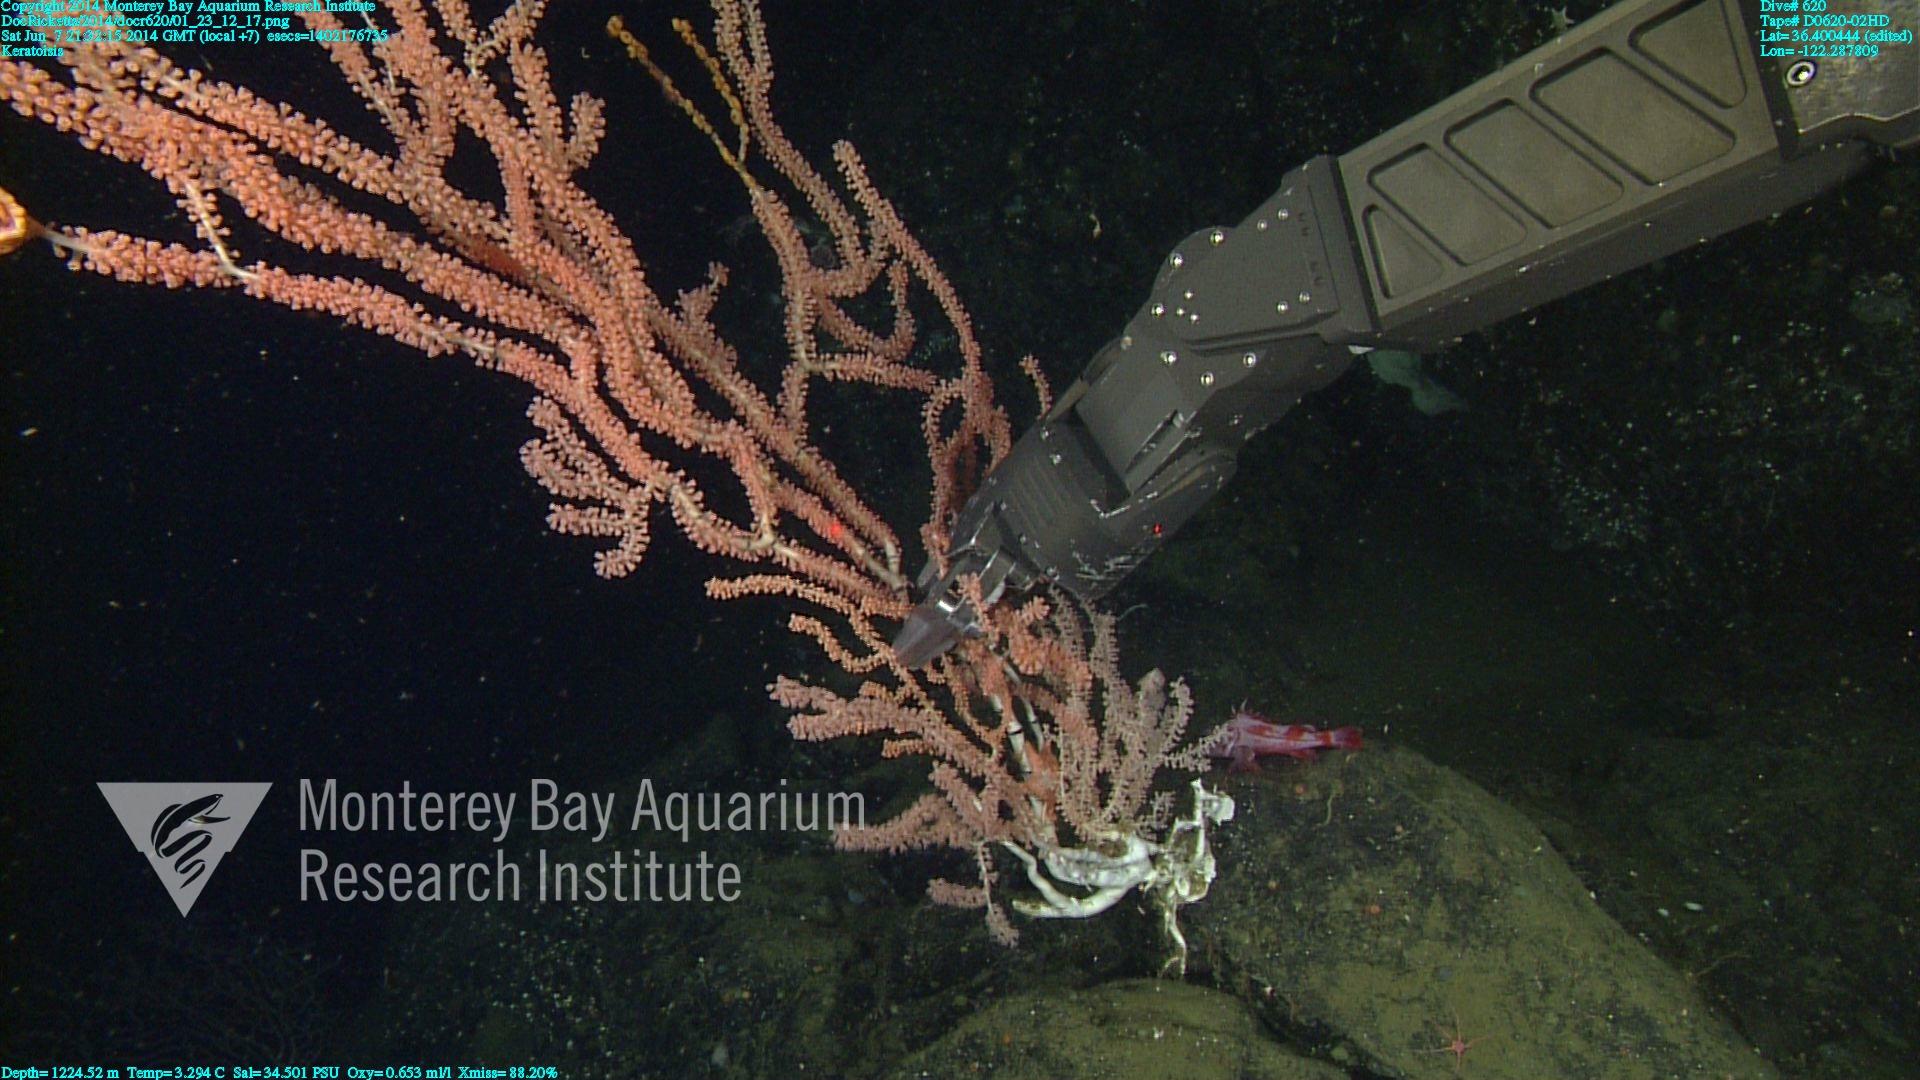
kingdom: Animalia
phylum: Cnidaria
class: Anthozoa
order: Scleralcyonacea
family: Keratoisididae
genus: Keratoisis
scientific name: Keratoisis
